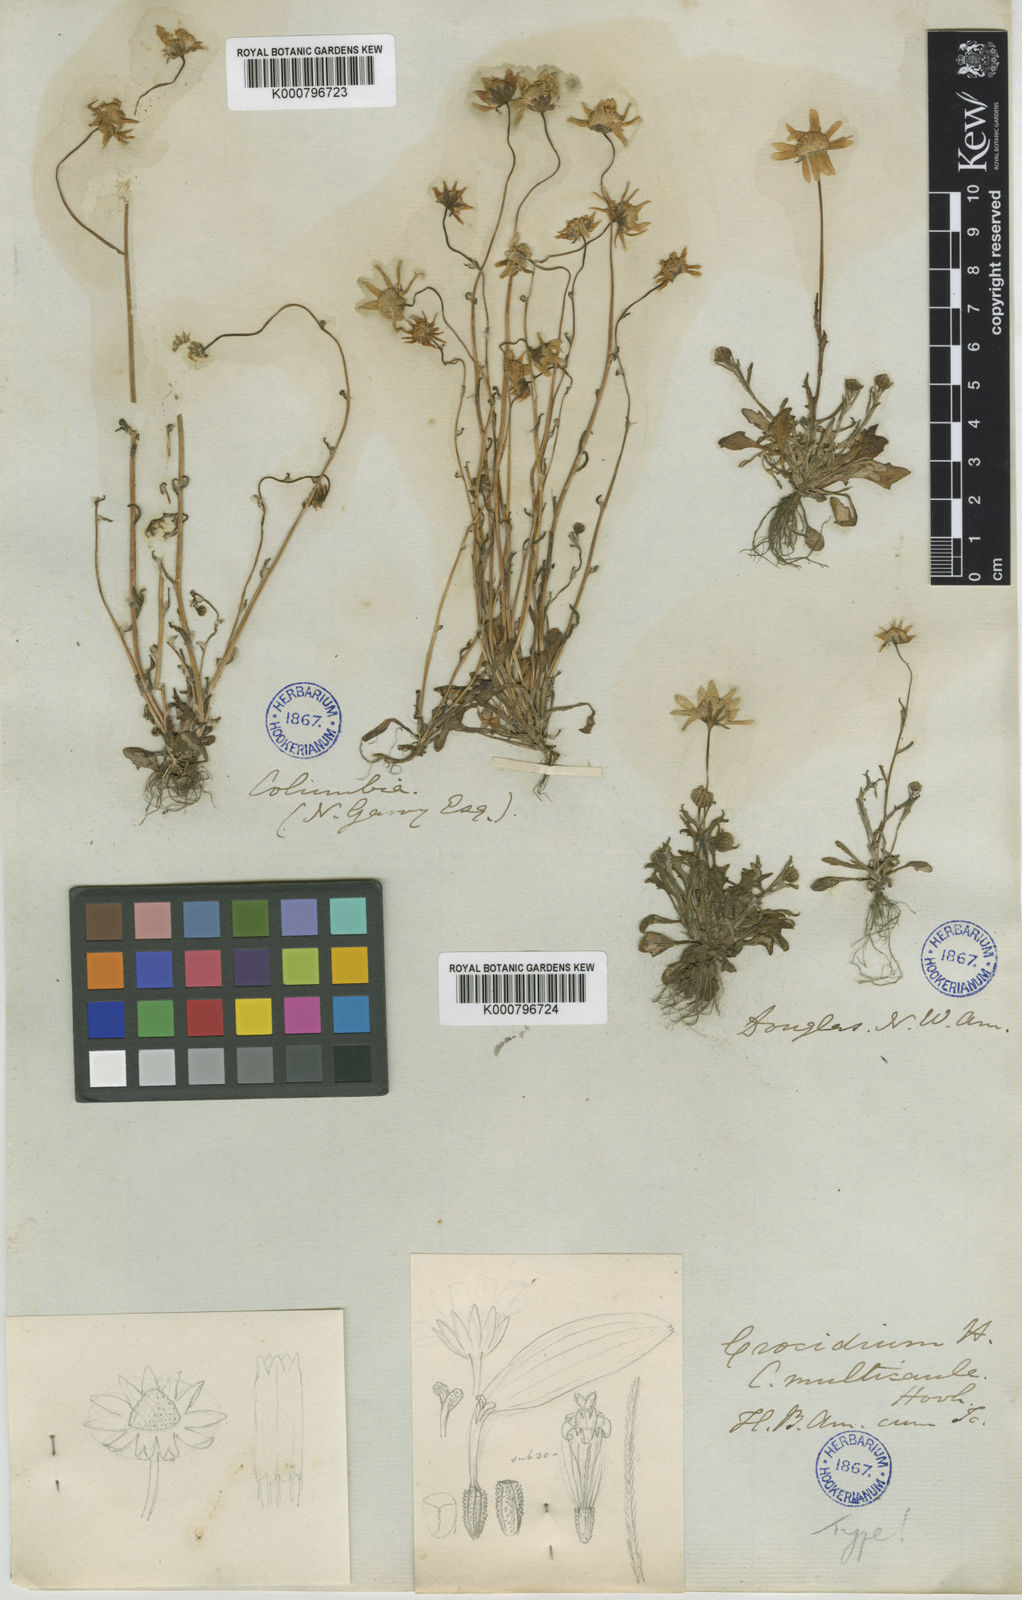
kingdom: Plantae
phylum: Tracheophyta
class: Magnoliopsida
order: Asterales
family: Asteraceae
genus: Crocidium
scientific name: Crocidium multicaule
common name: Common spring gold
